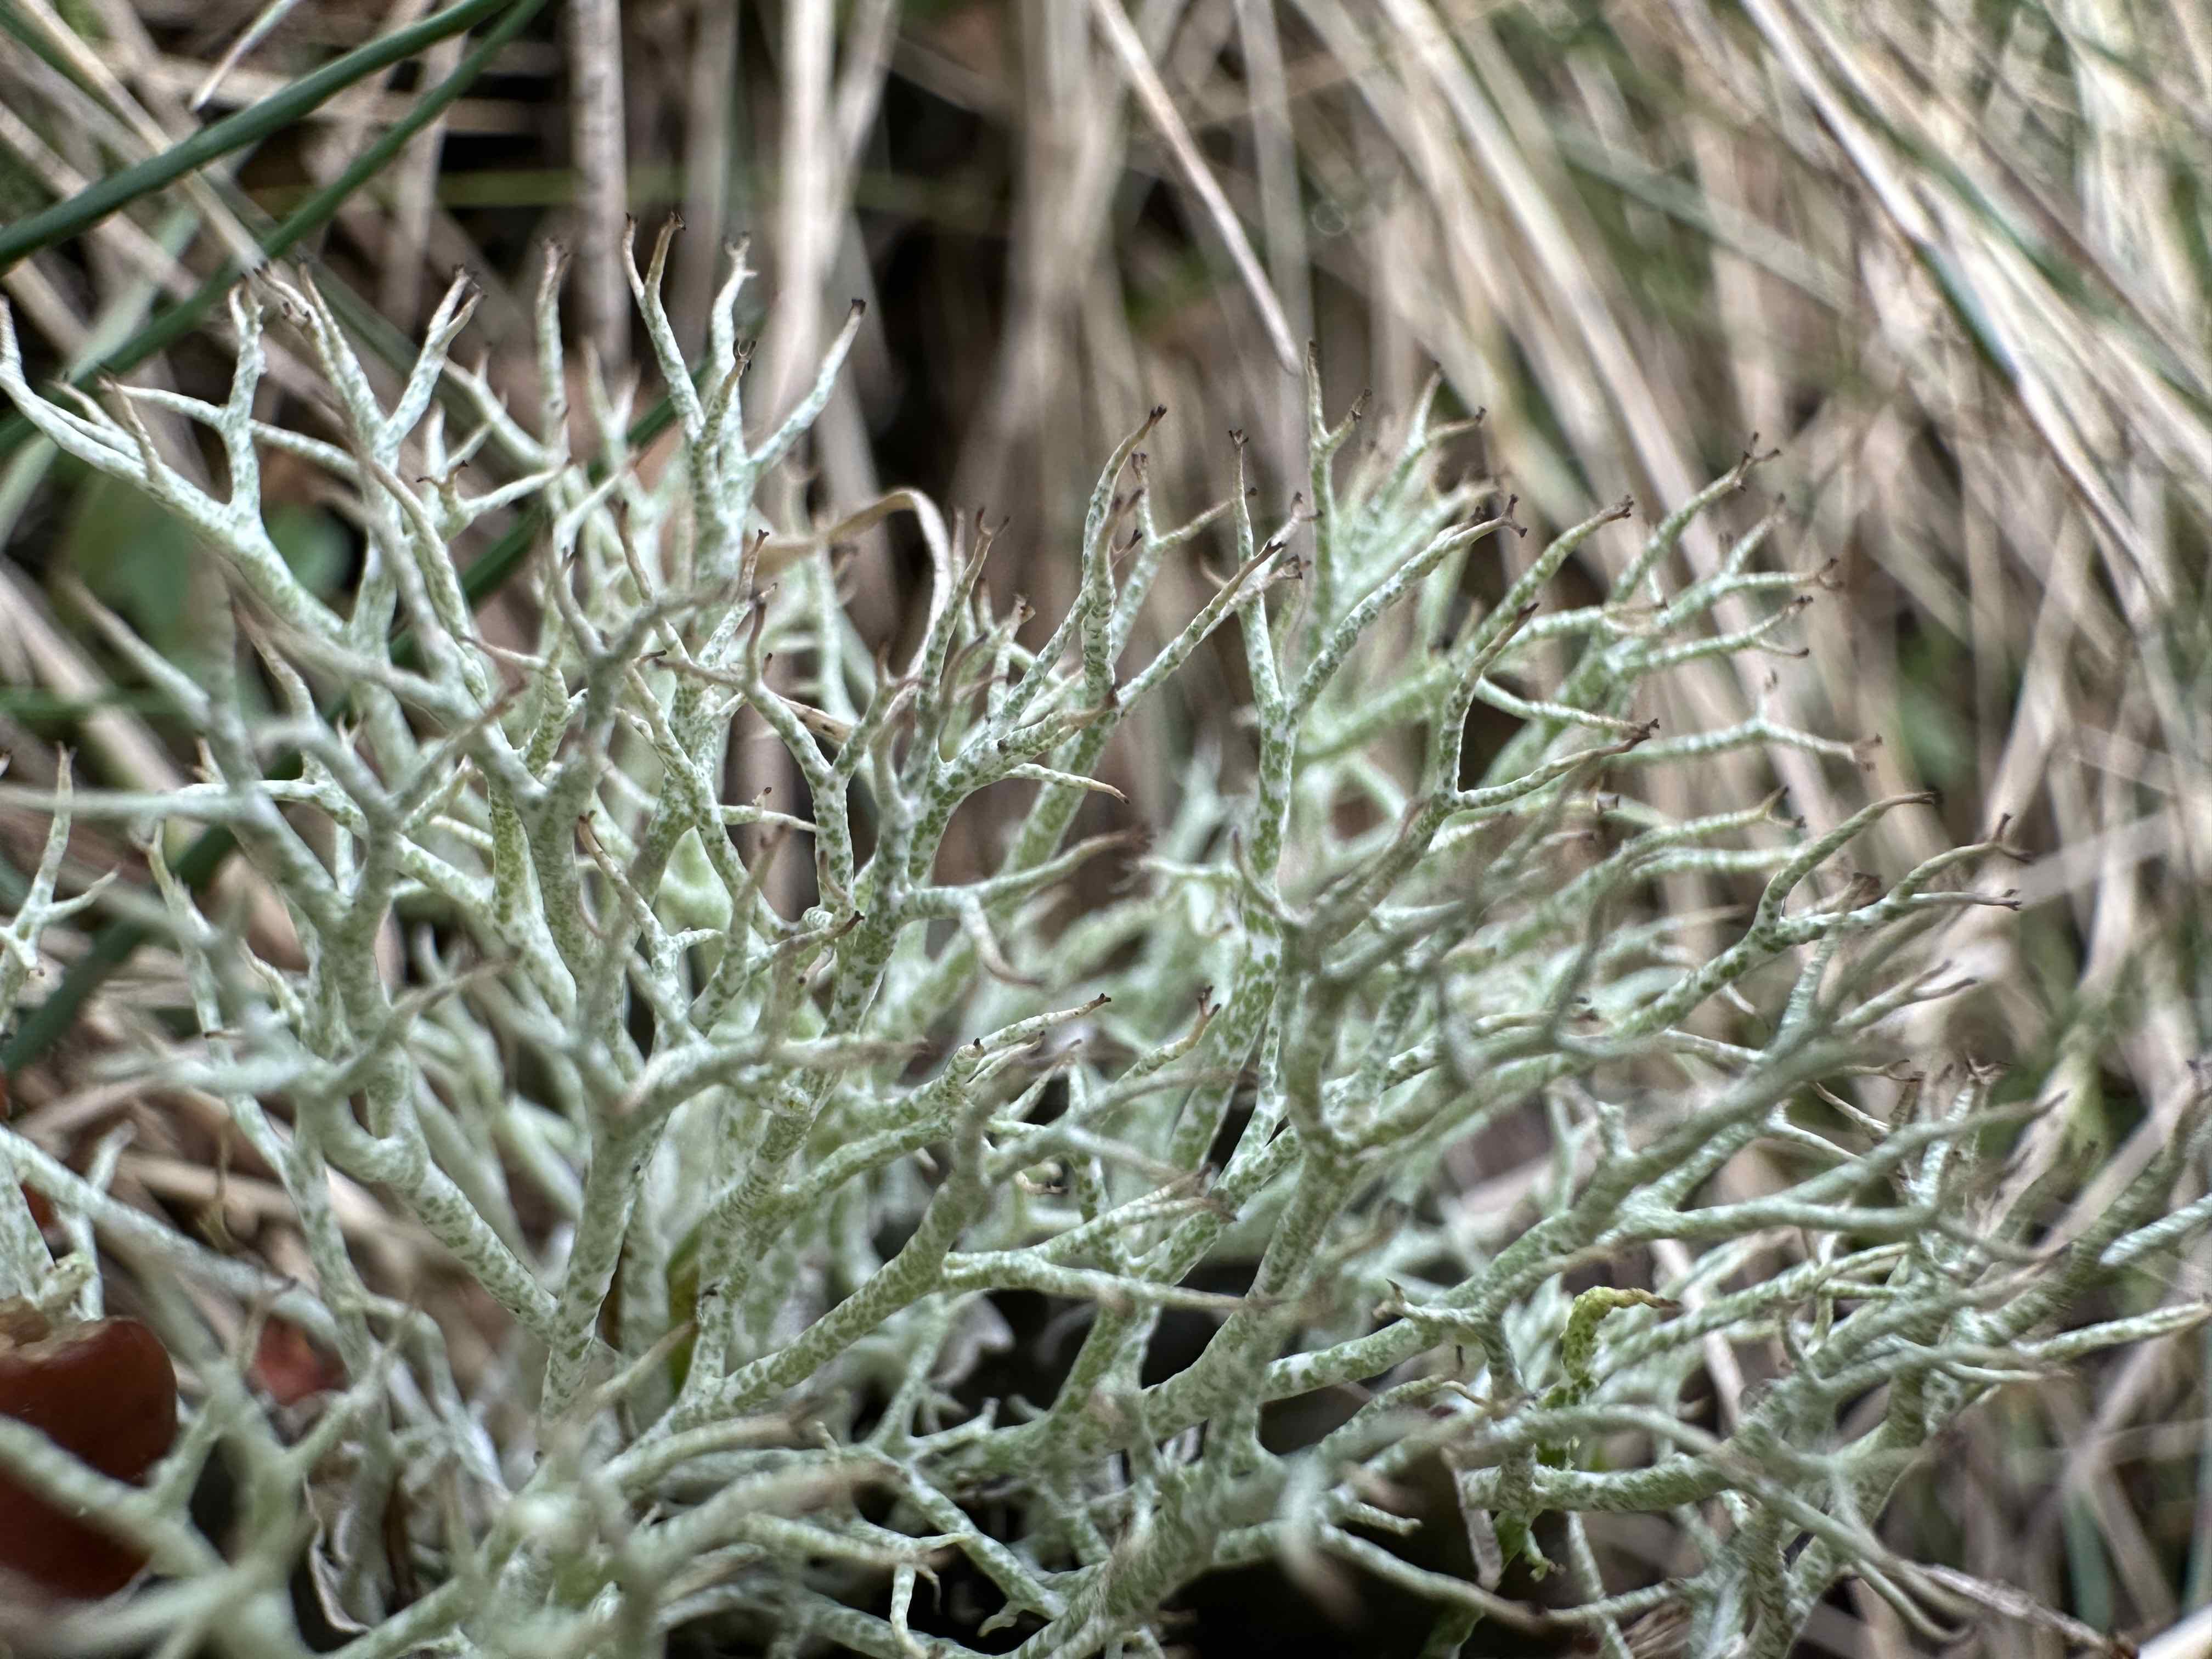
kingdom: Fungi
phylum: Ascomycota
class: Lecanoromycetes
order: Lecanorales
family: Cladoniaceae
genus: Cladonia
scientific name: Cladonia rangiformis
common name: spættet bægerlav
